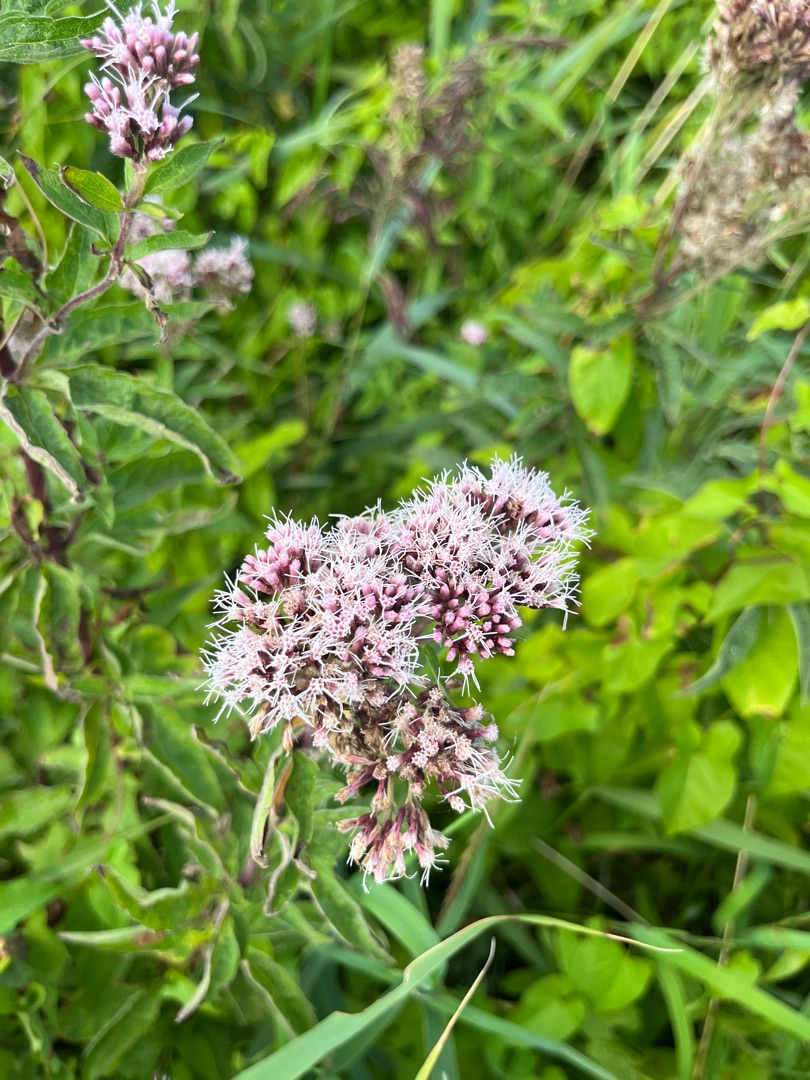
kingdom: Plantae
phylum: Tracheophyta
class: Magnoliopsida
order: Asterales
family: Asteraceae
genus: Eupatorium
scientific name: Eupatorium cannabinum
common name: Hjortetrøst
